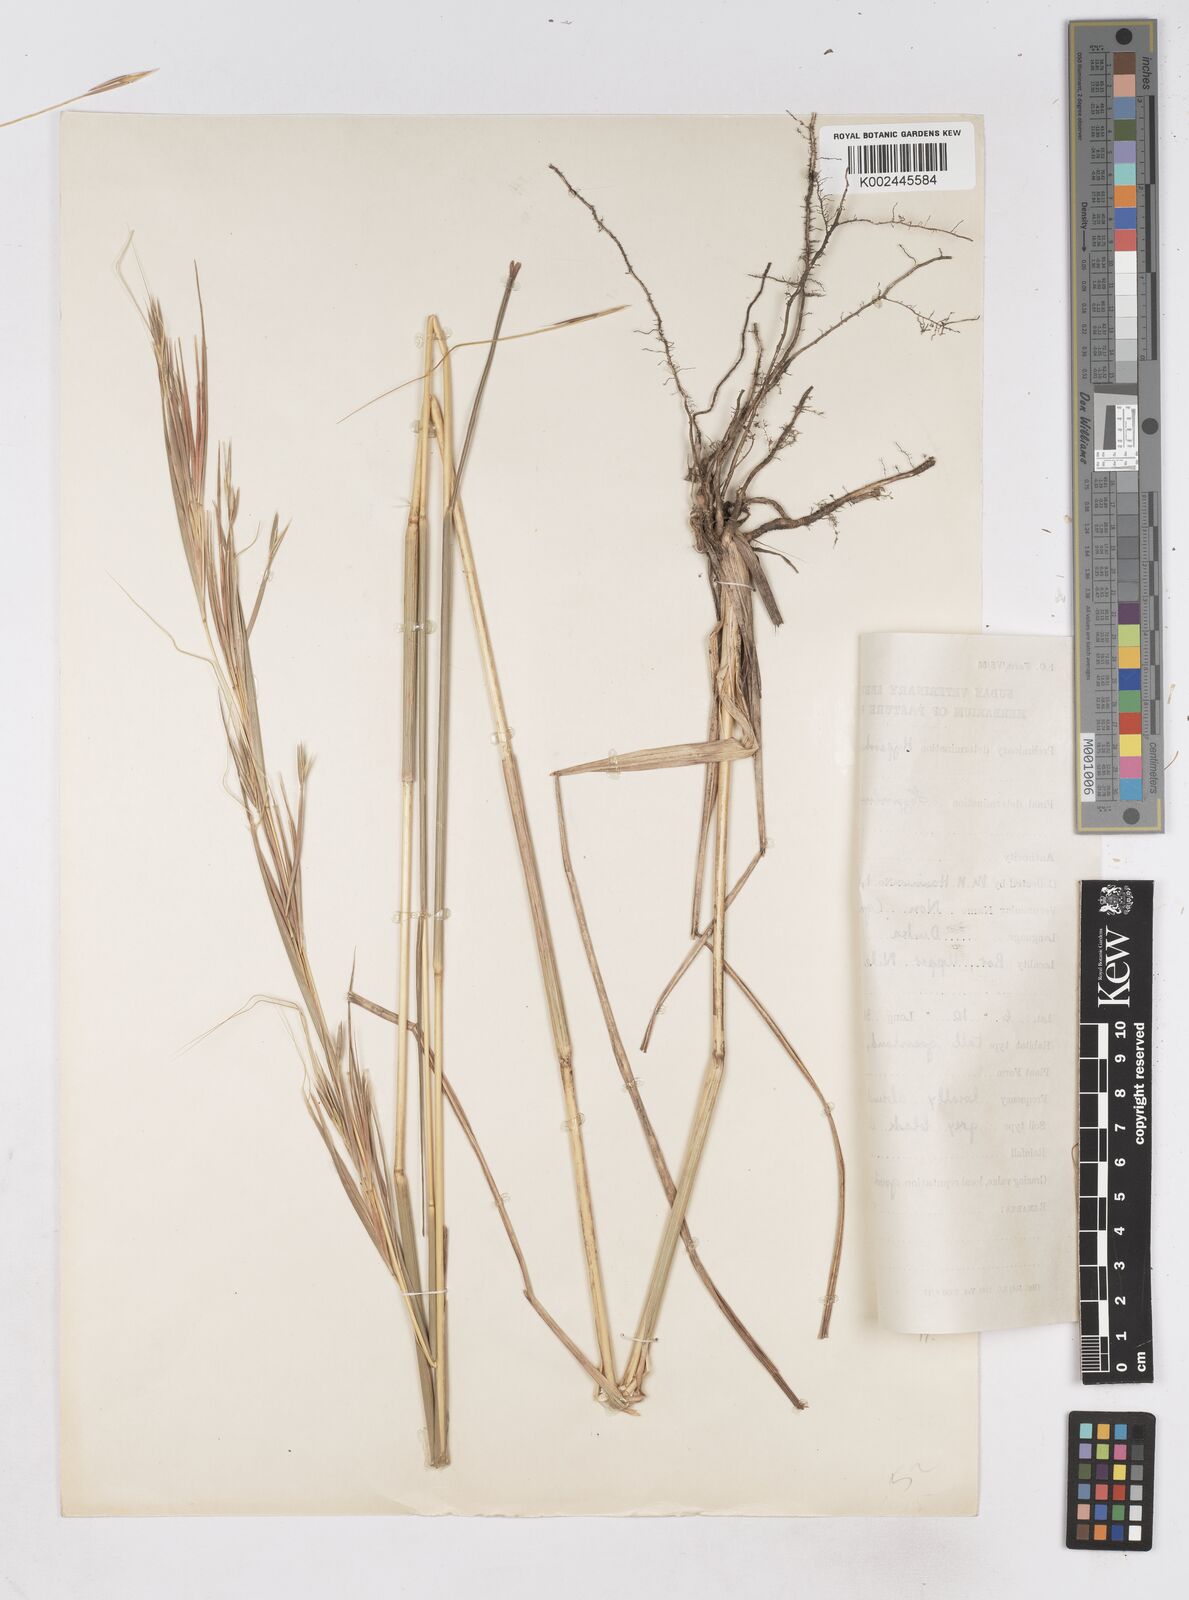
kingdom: Plantae
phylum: Tracheophyta
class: Liliopsida
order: Poales
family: Poaceae
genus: Hyperthelia
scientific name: Hyperthelia dissoluta
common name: Yellow thatching grass
